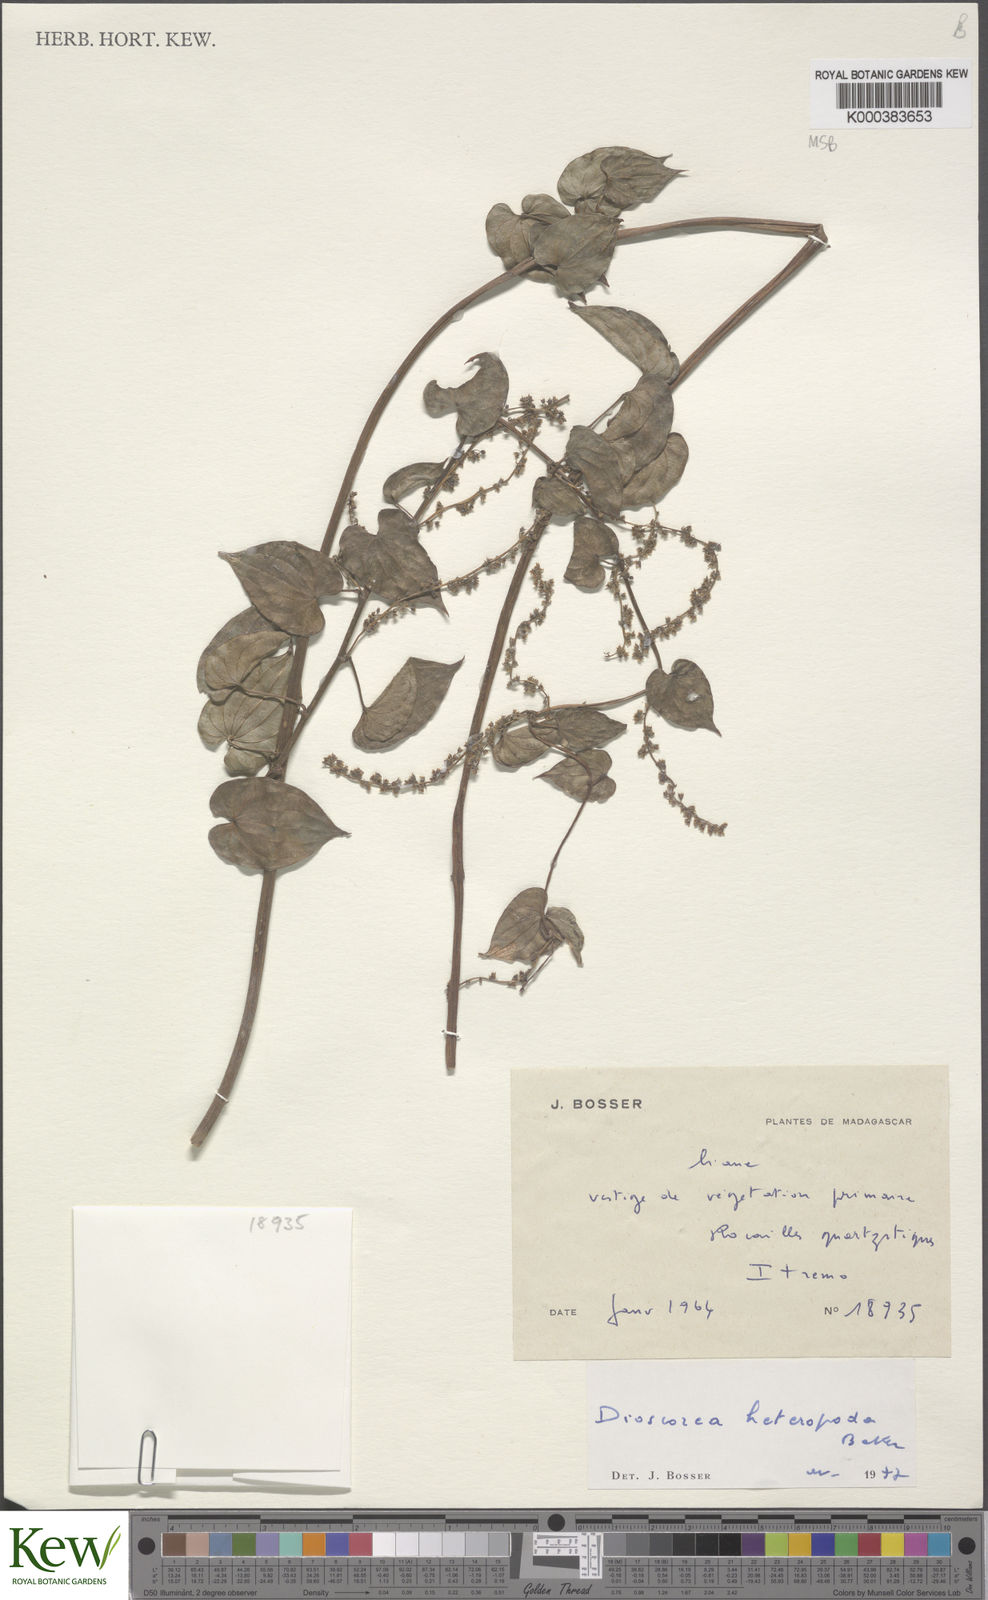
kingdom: Plantae
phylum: Tracheophyta
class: Liliopsida
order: Dioscoreales
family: Dioscoreaceae
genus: Dioscorea
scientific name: Dioscorea heteropoda
